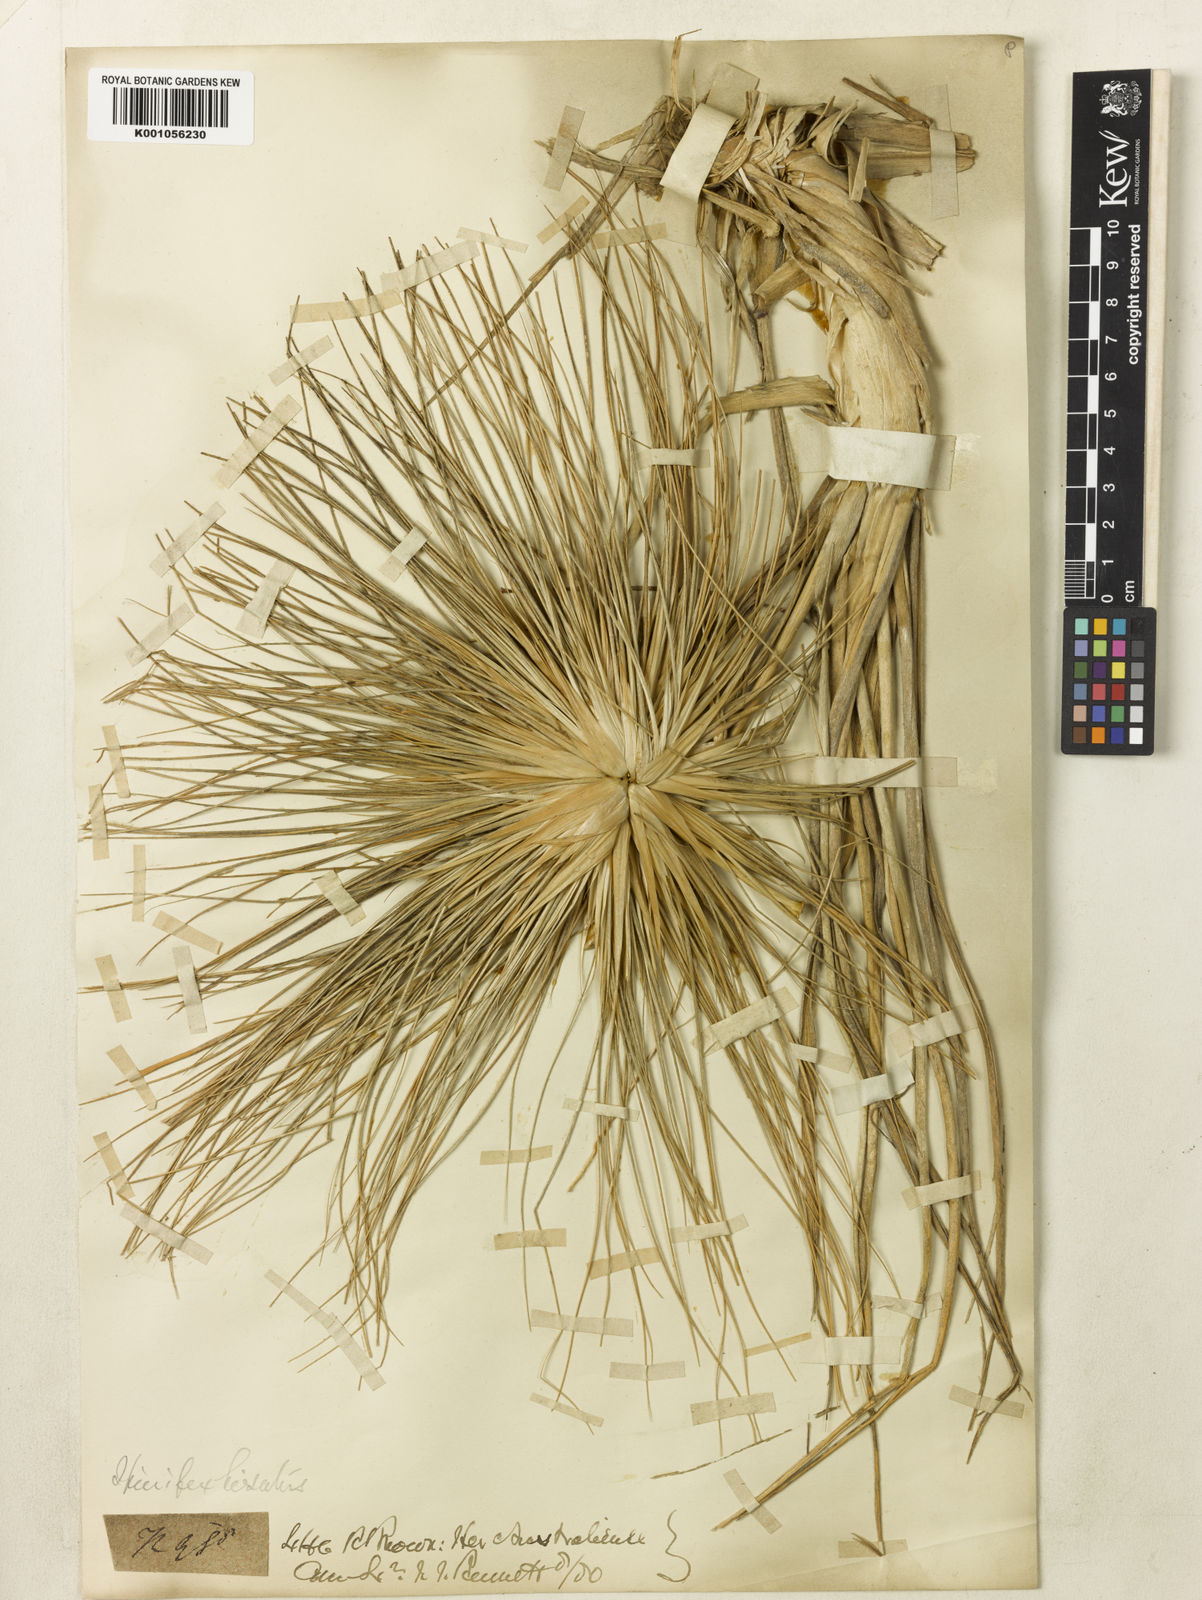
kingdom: Plantae
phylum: Tracheophyta
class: Liliopsida
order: Poales
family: Poaceae
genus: Spinifex
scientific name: Spinifex sericeus
